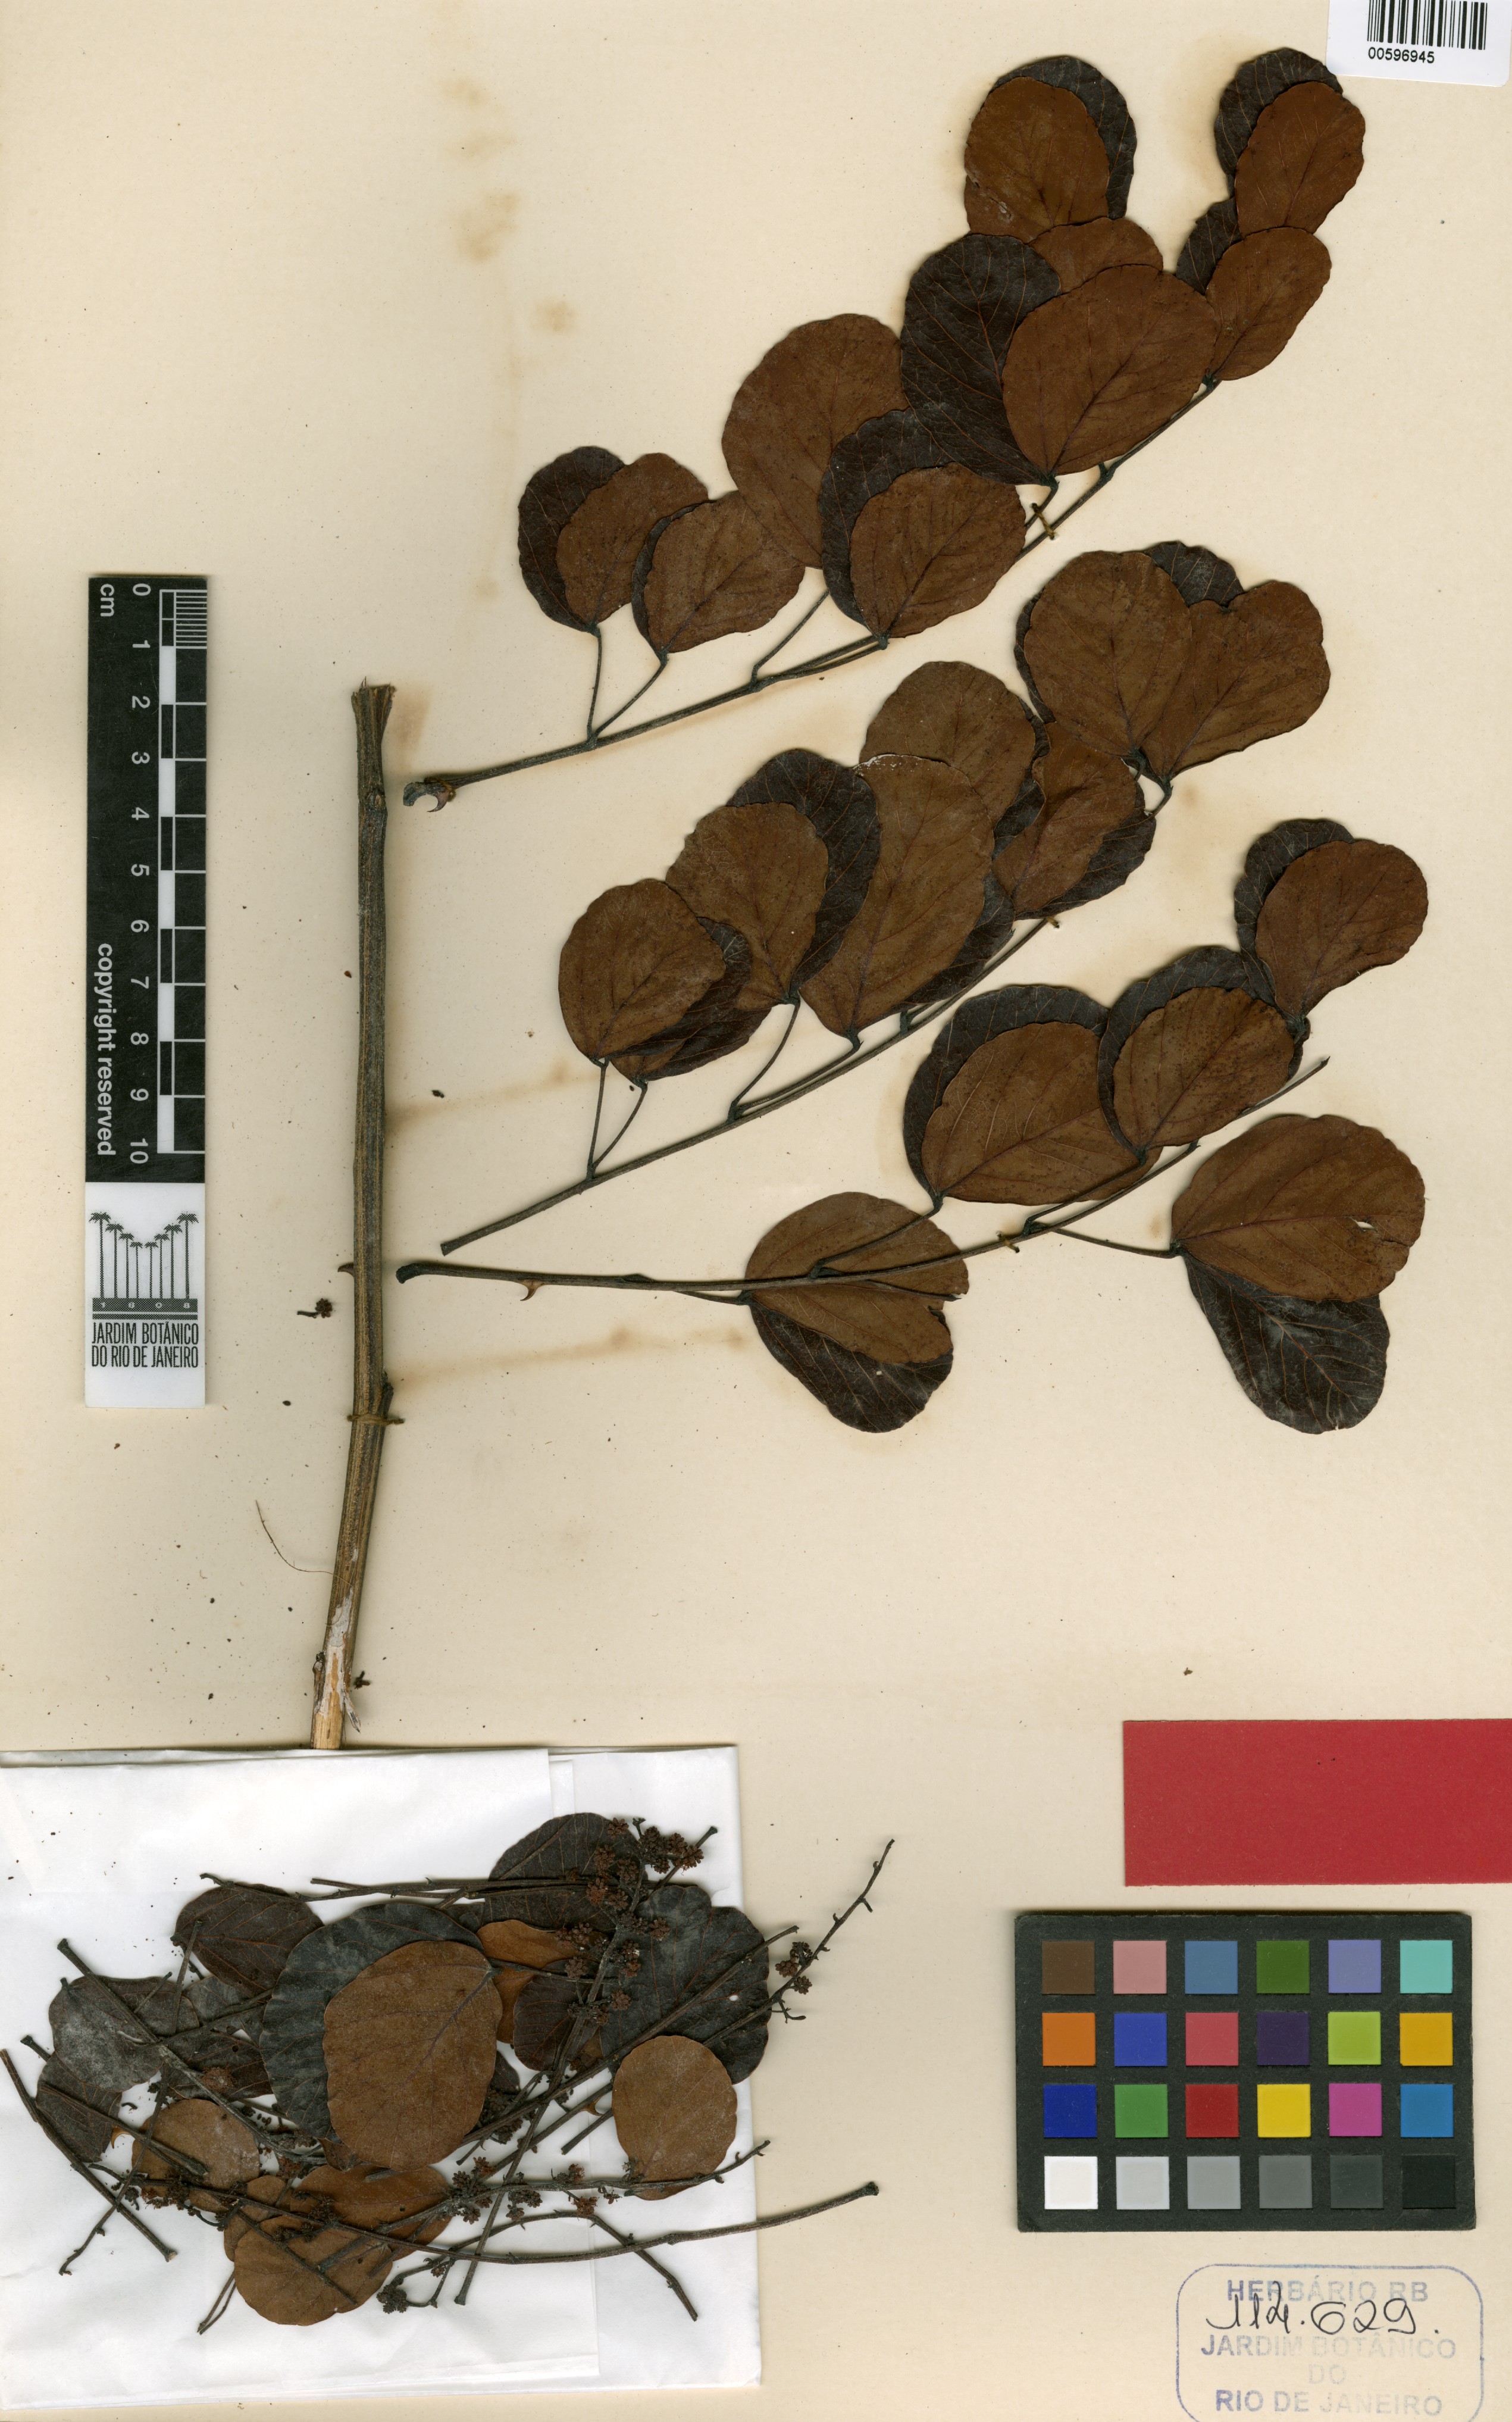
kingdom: Plantae
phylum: Tracheophyta
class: Magnoliopsida
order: Fabales
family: Fabaceae
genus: Mimosa
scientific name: Mimosa laticifera
